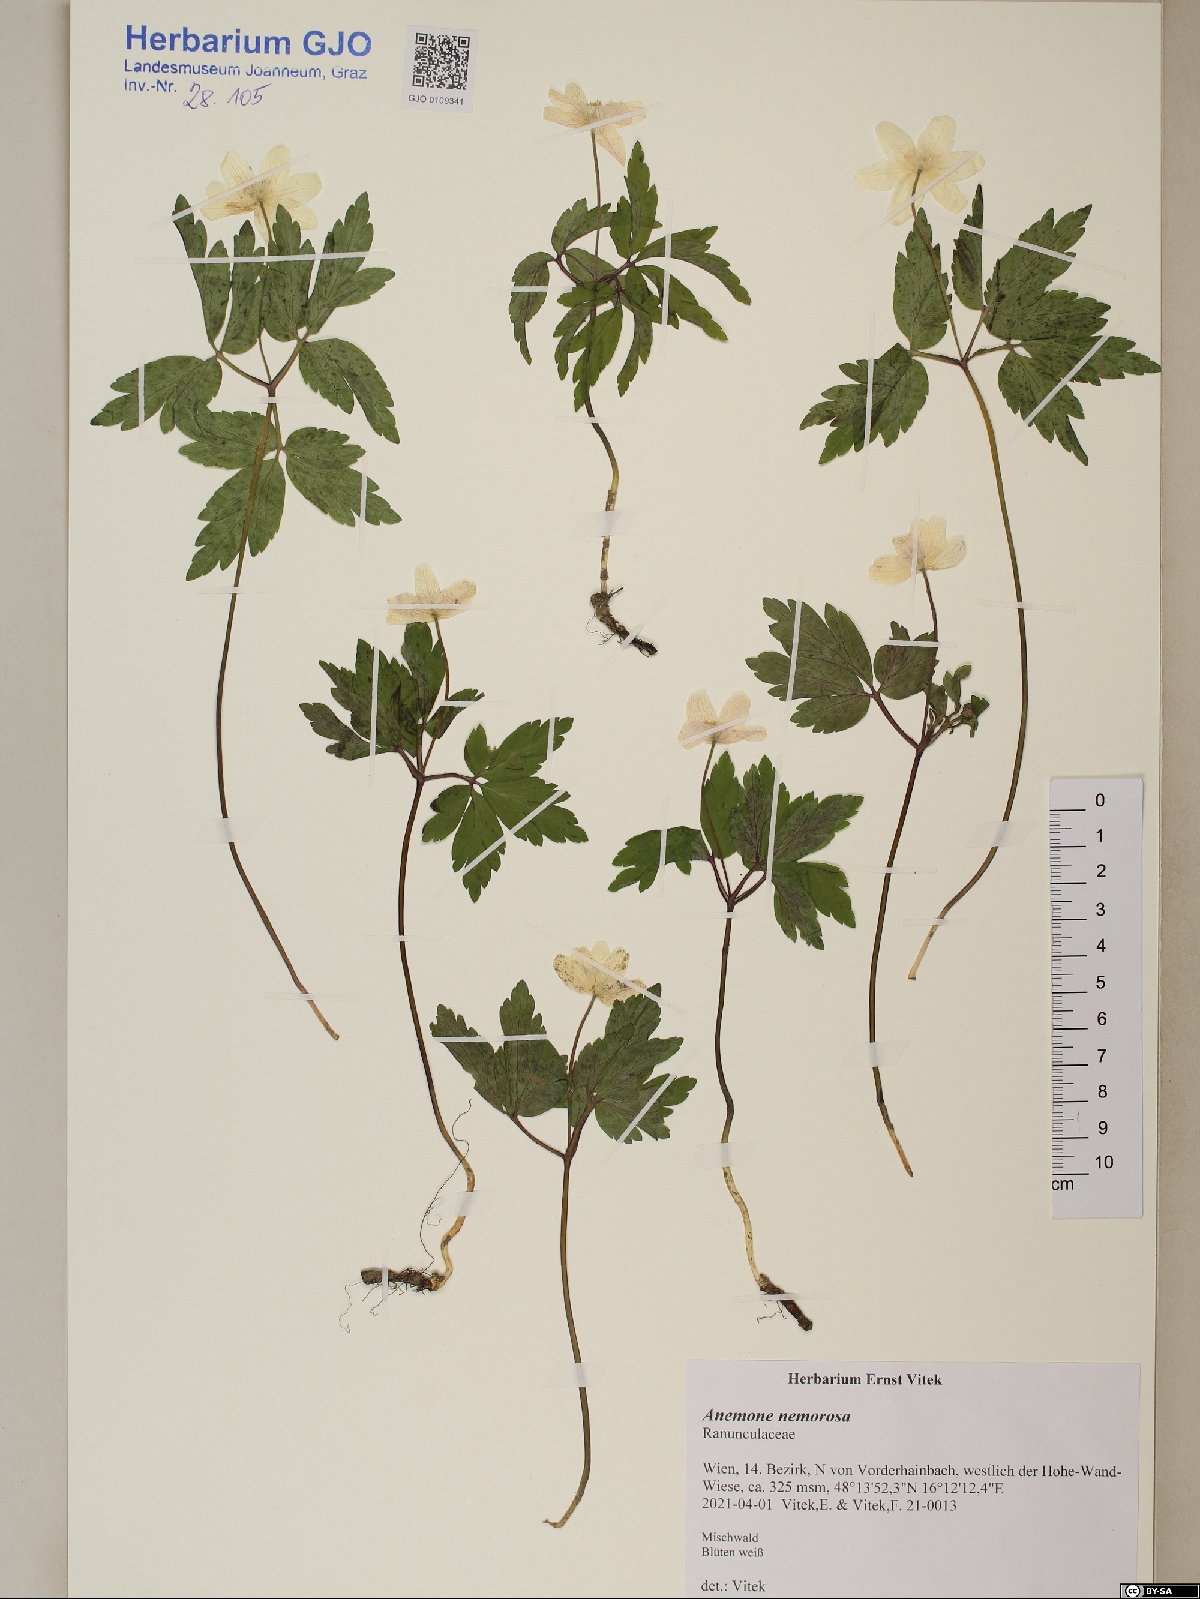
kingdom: Plantae
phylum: Tracheophyta
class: Magnoliopsida
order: Ranunculales
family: Ranunculaceae
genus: Anemone
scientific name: Anemone nemorosa
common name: Wood anemone
